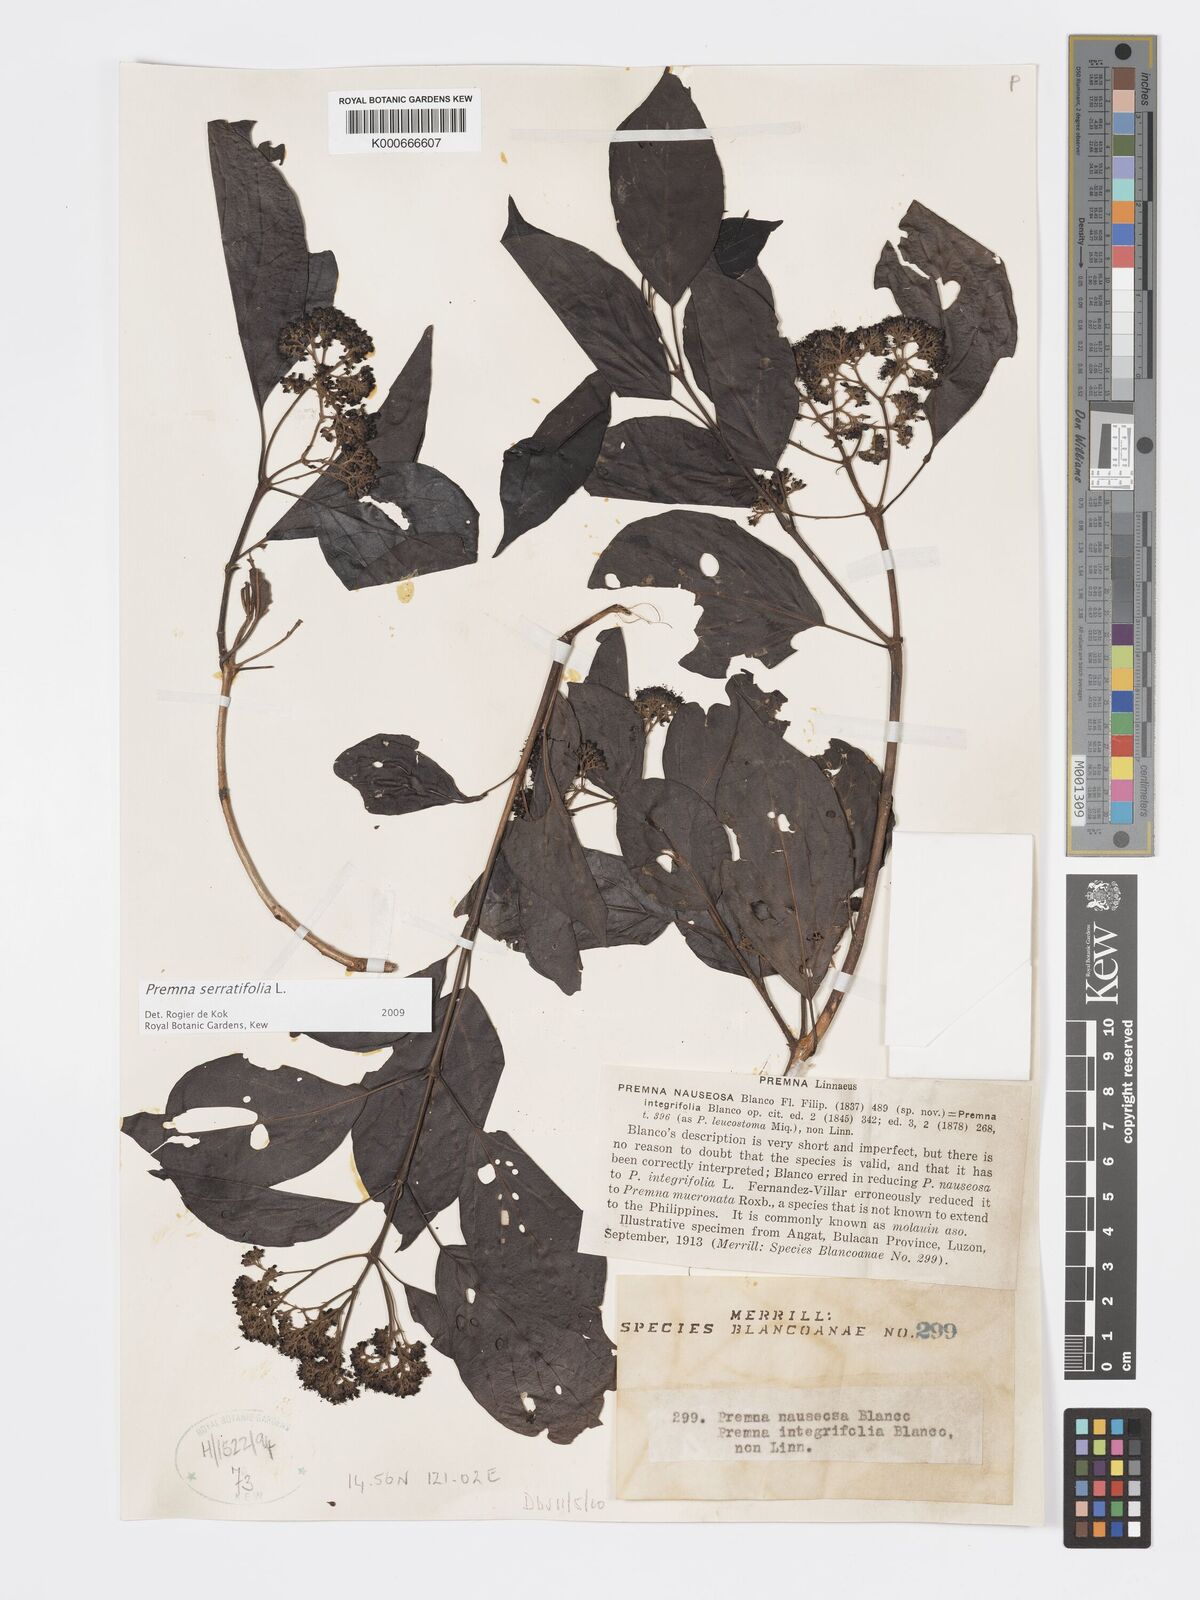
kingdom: Plantae
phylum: Tracheophyta
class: Magnoliopsida
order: Lamiales
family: Lamiaceae
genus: Premna
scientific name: Premna serratifolia
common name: Bastard guelder
